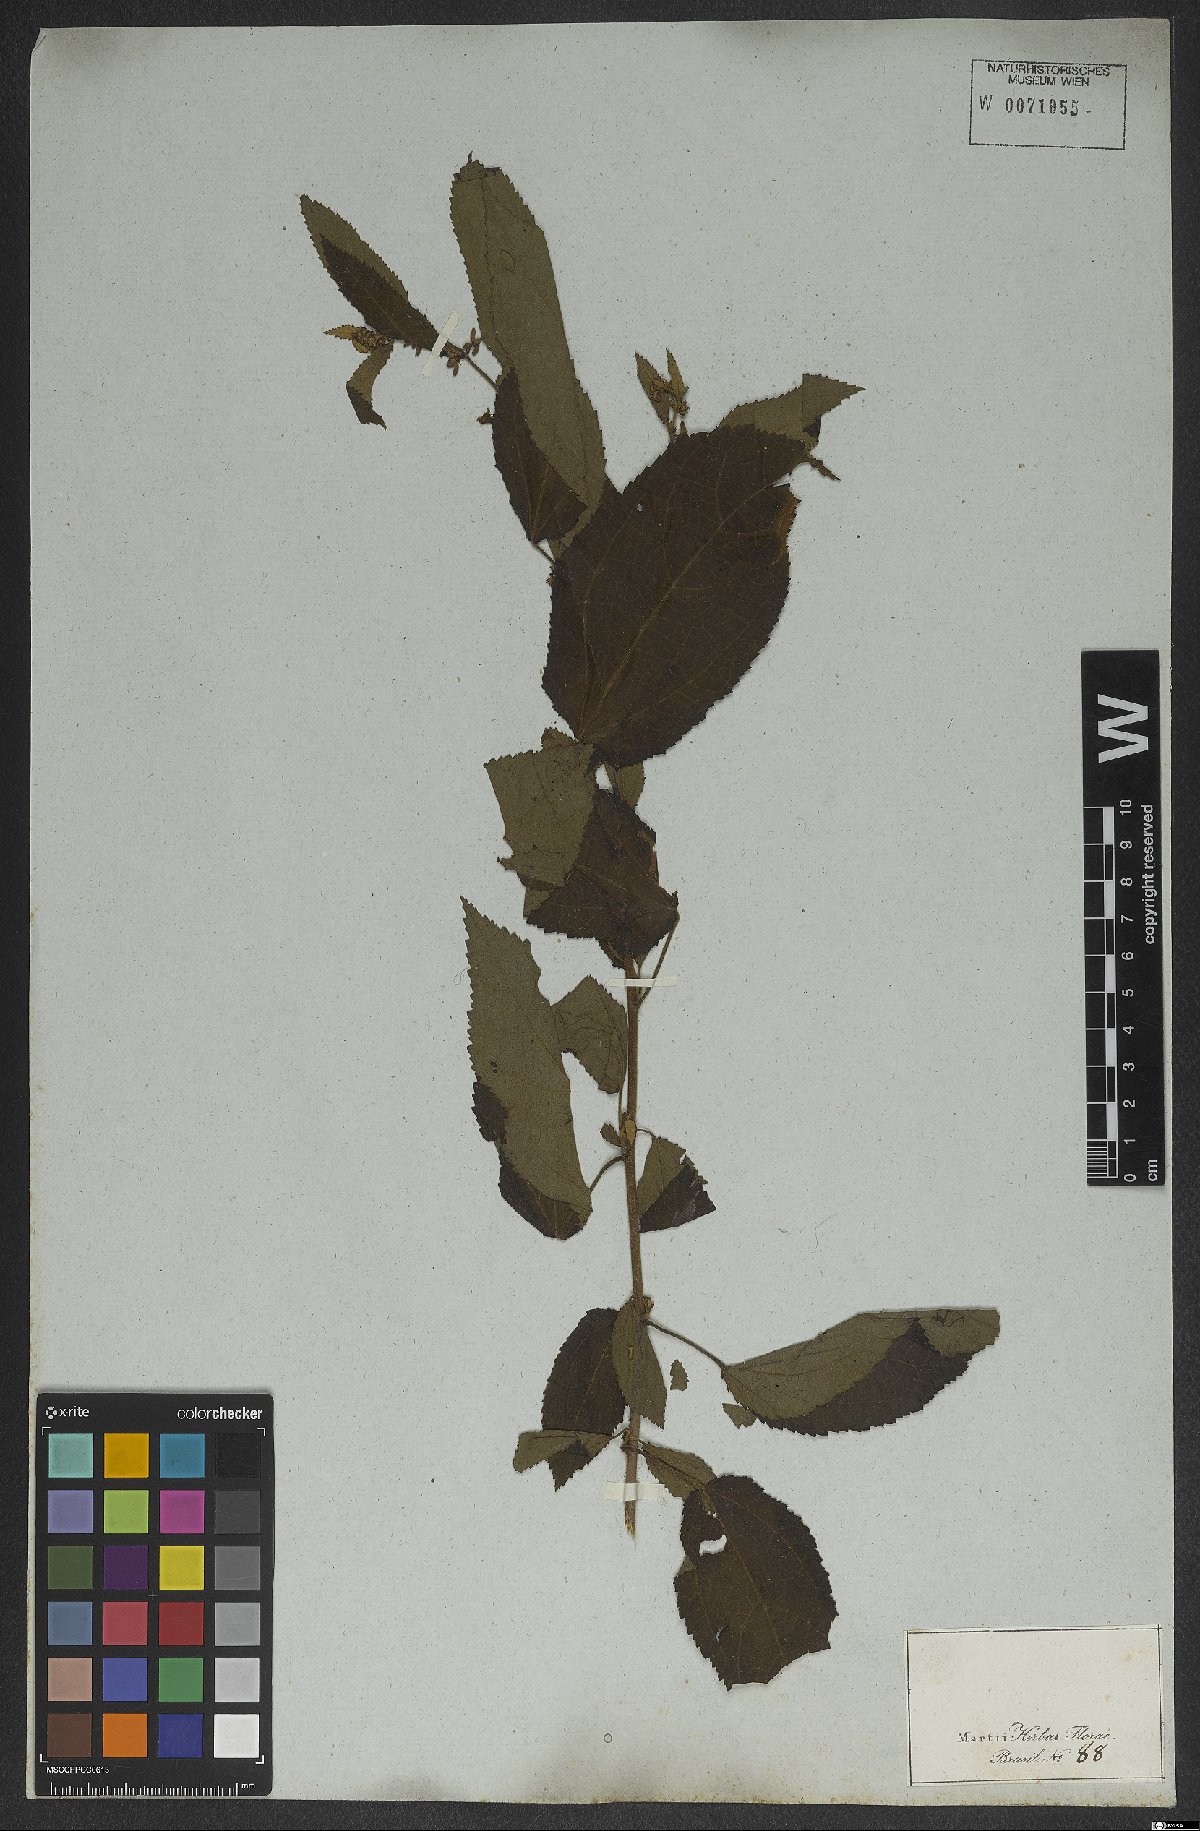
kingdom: Plantae
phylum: Tracheophyta
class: Magnoliopsida
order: Malvales
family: Malvaceae
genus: Triumfetta
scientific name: Triumfetta semitriloba
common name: Sacramento burbark
